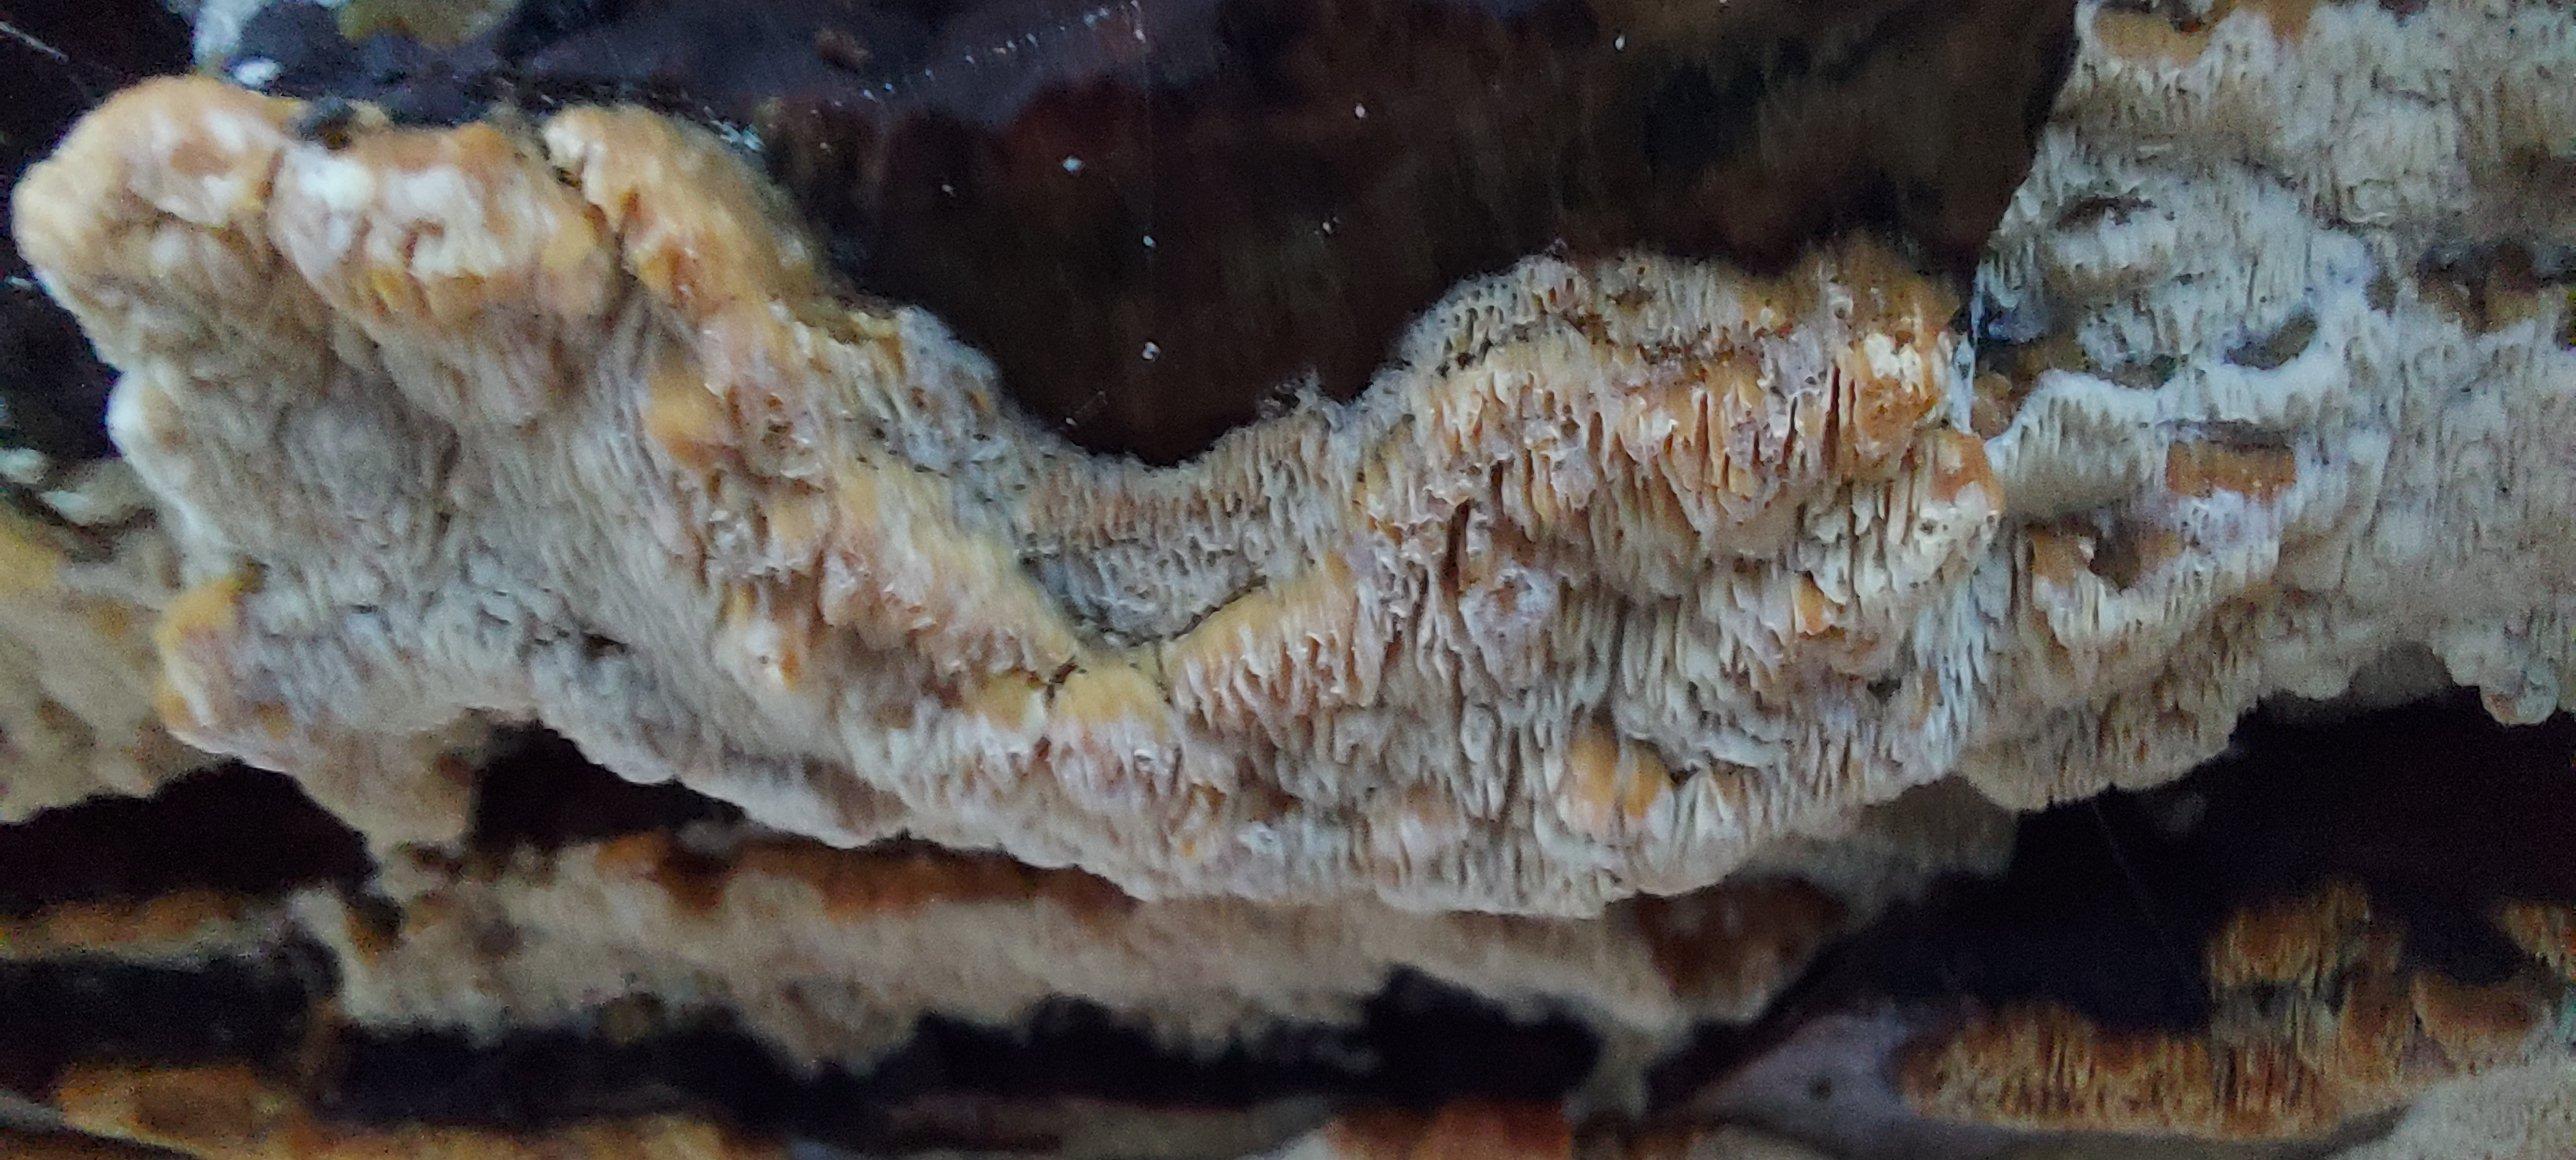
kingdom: Fungi
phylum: Basidiomycota
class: Agaricomycetes
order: Hymenochaetales
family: Schizoporaceae
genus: Xylodon
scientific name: Xylodon subtropicus
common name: labyrint-tandsvamp
